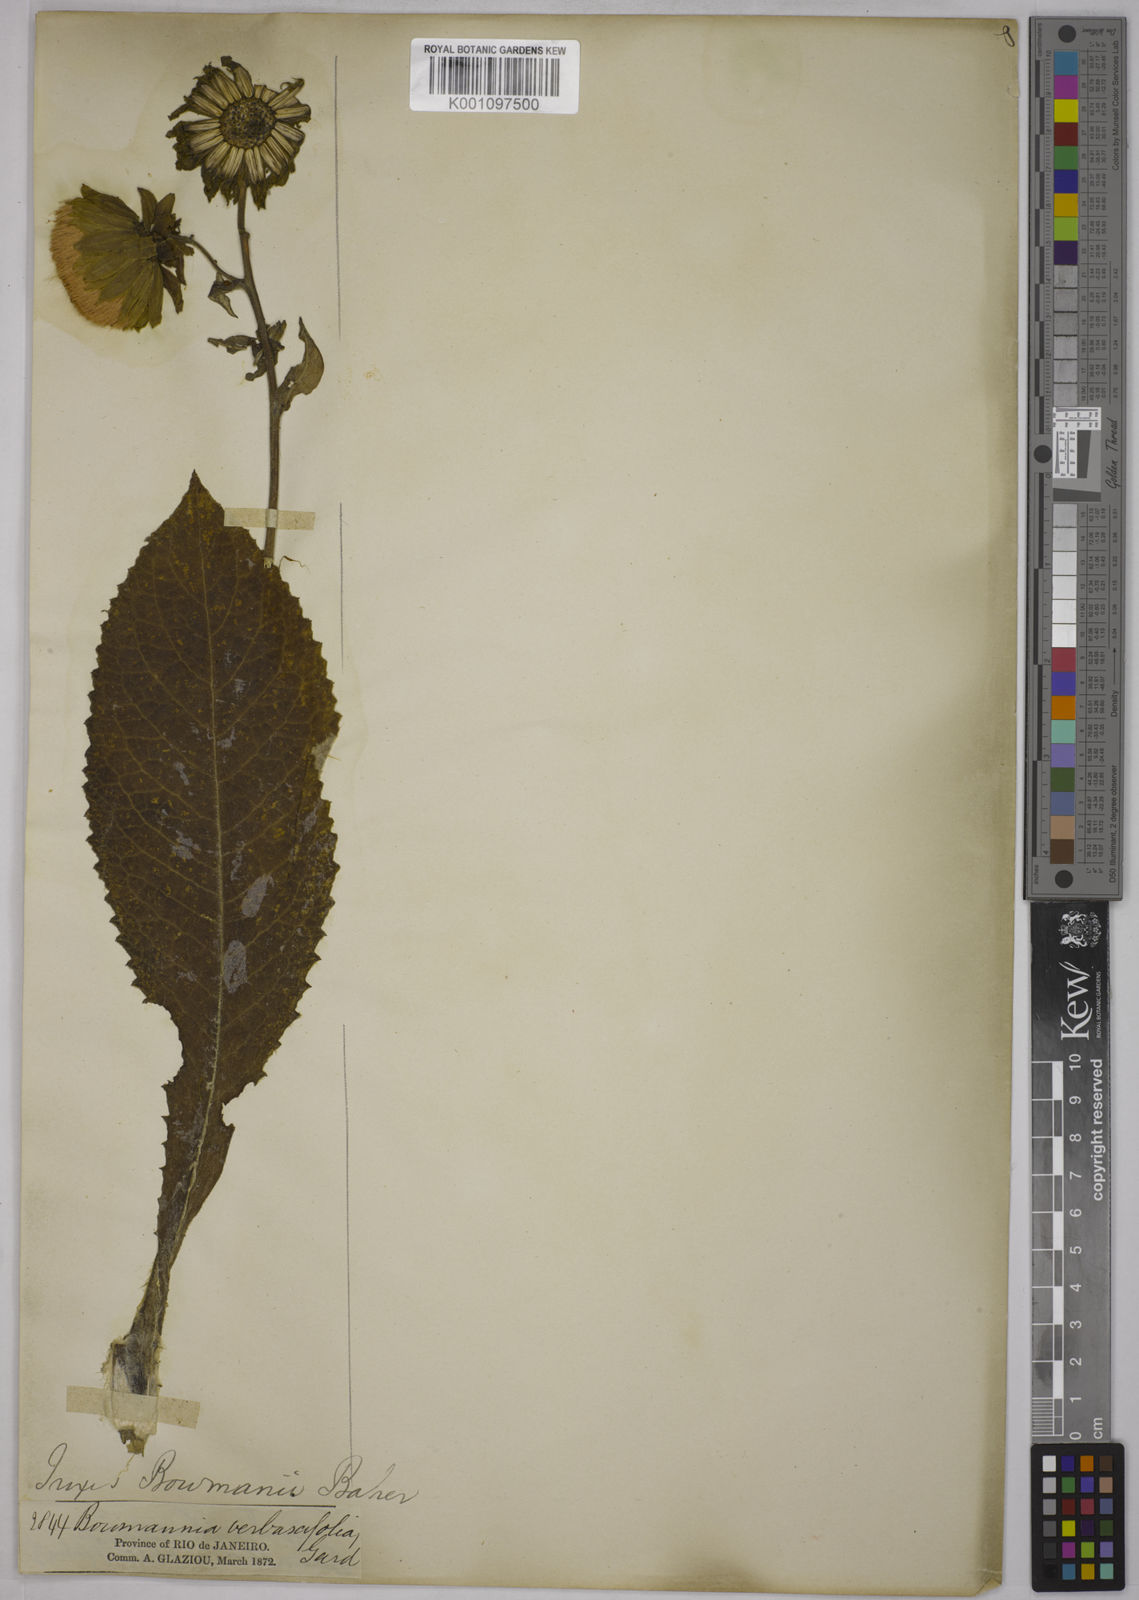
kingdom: Plantae
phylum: Tracheophyta
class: Magnoliopsida
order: Asterales
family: Asteraceae
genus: Trixis
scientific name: Trixis verbascifolia
